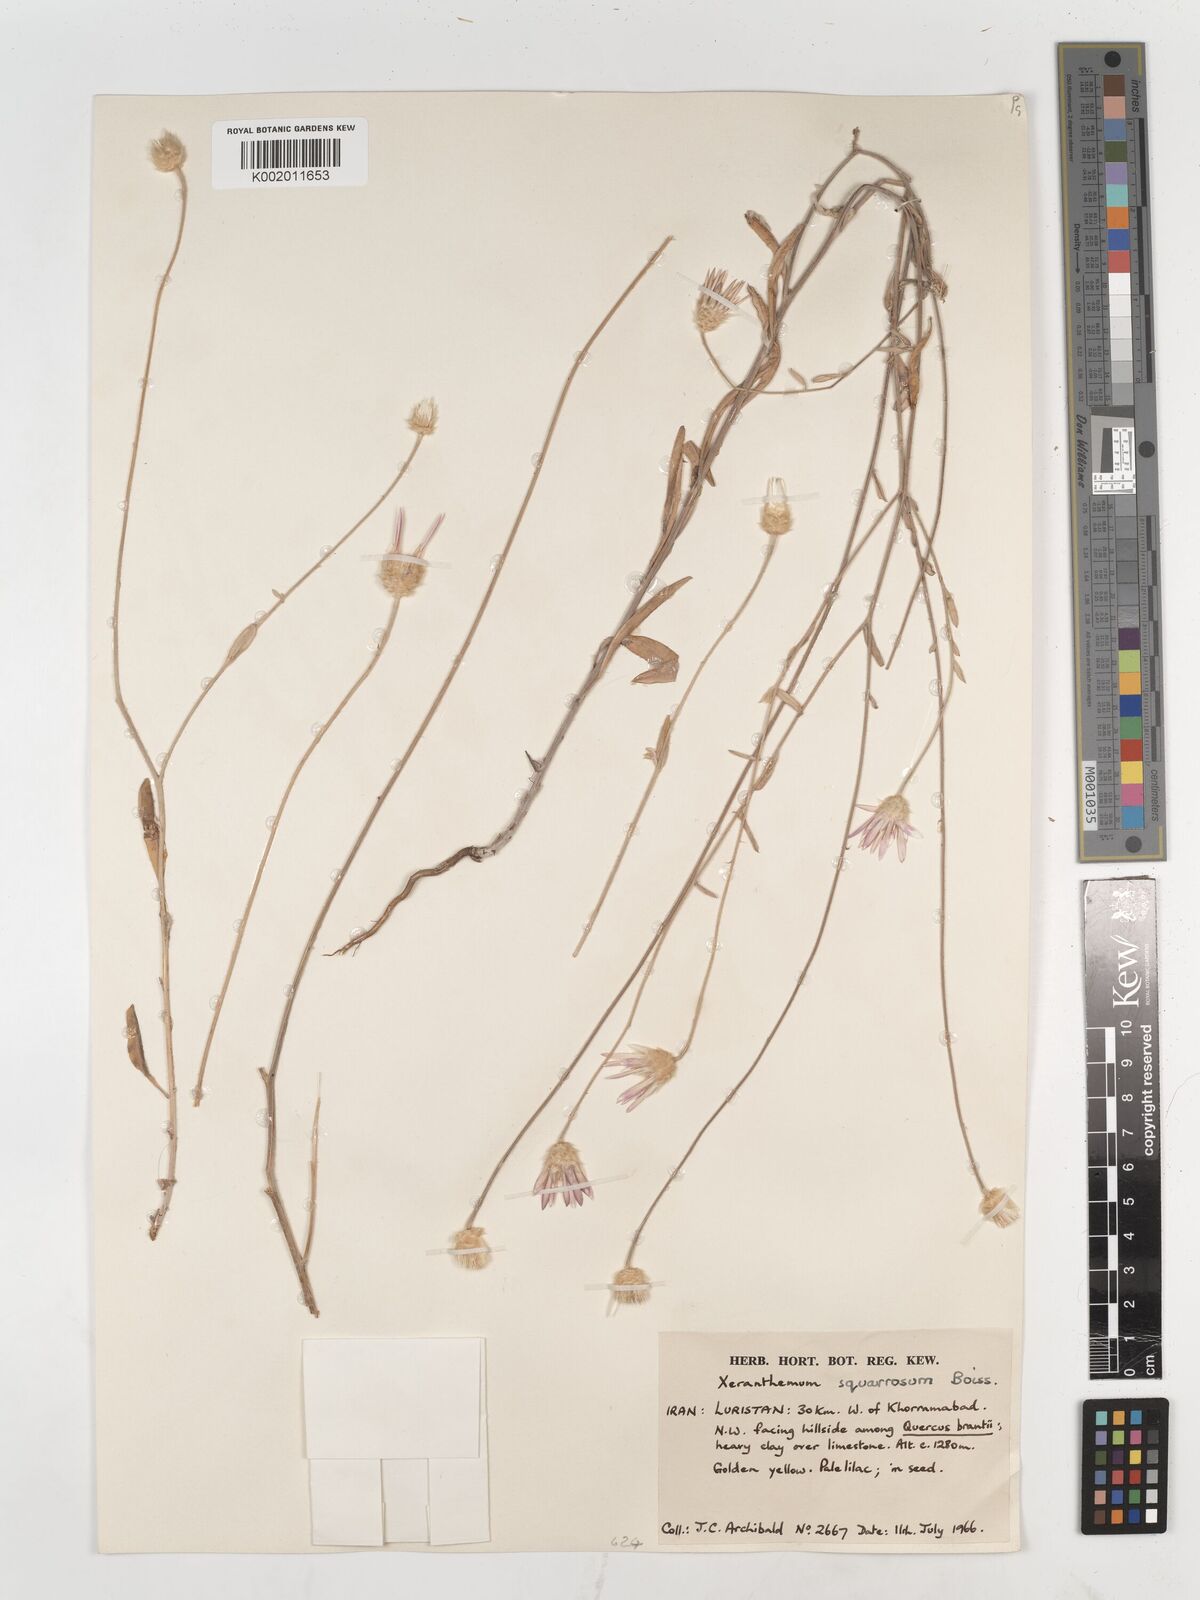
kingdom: Plantae
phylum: Tracheophyta
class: Magnoliopsida
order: Asterales
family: Asteraceae
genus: Xeranthemum
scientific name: Xeranthemum squarrosum
